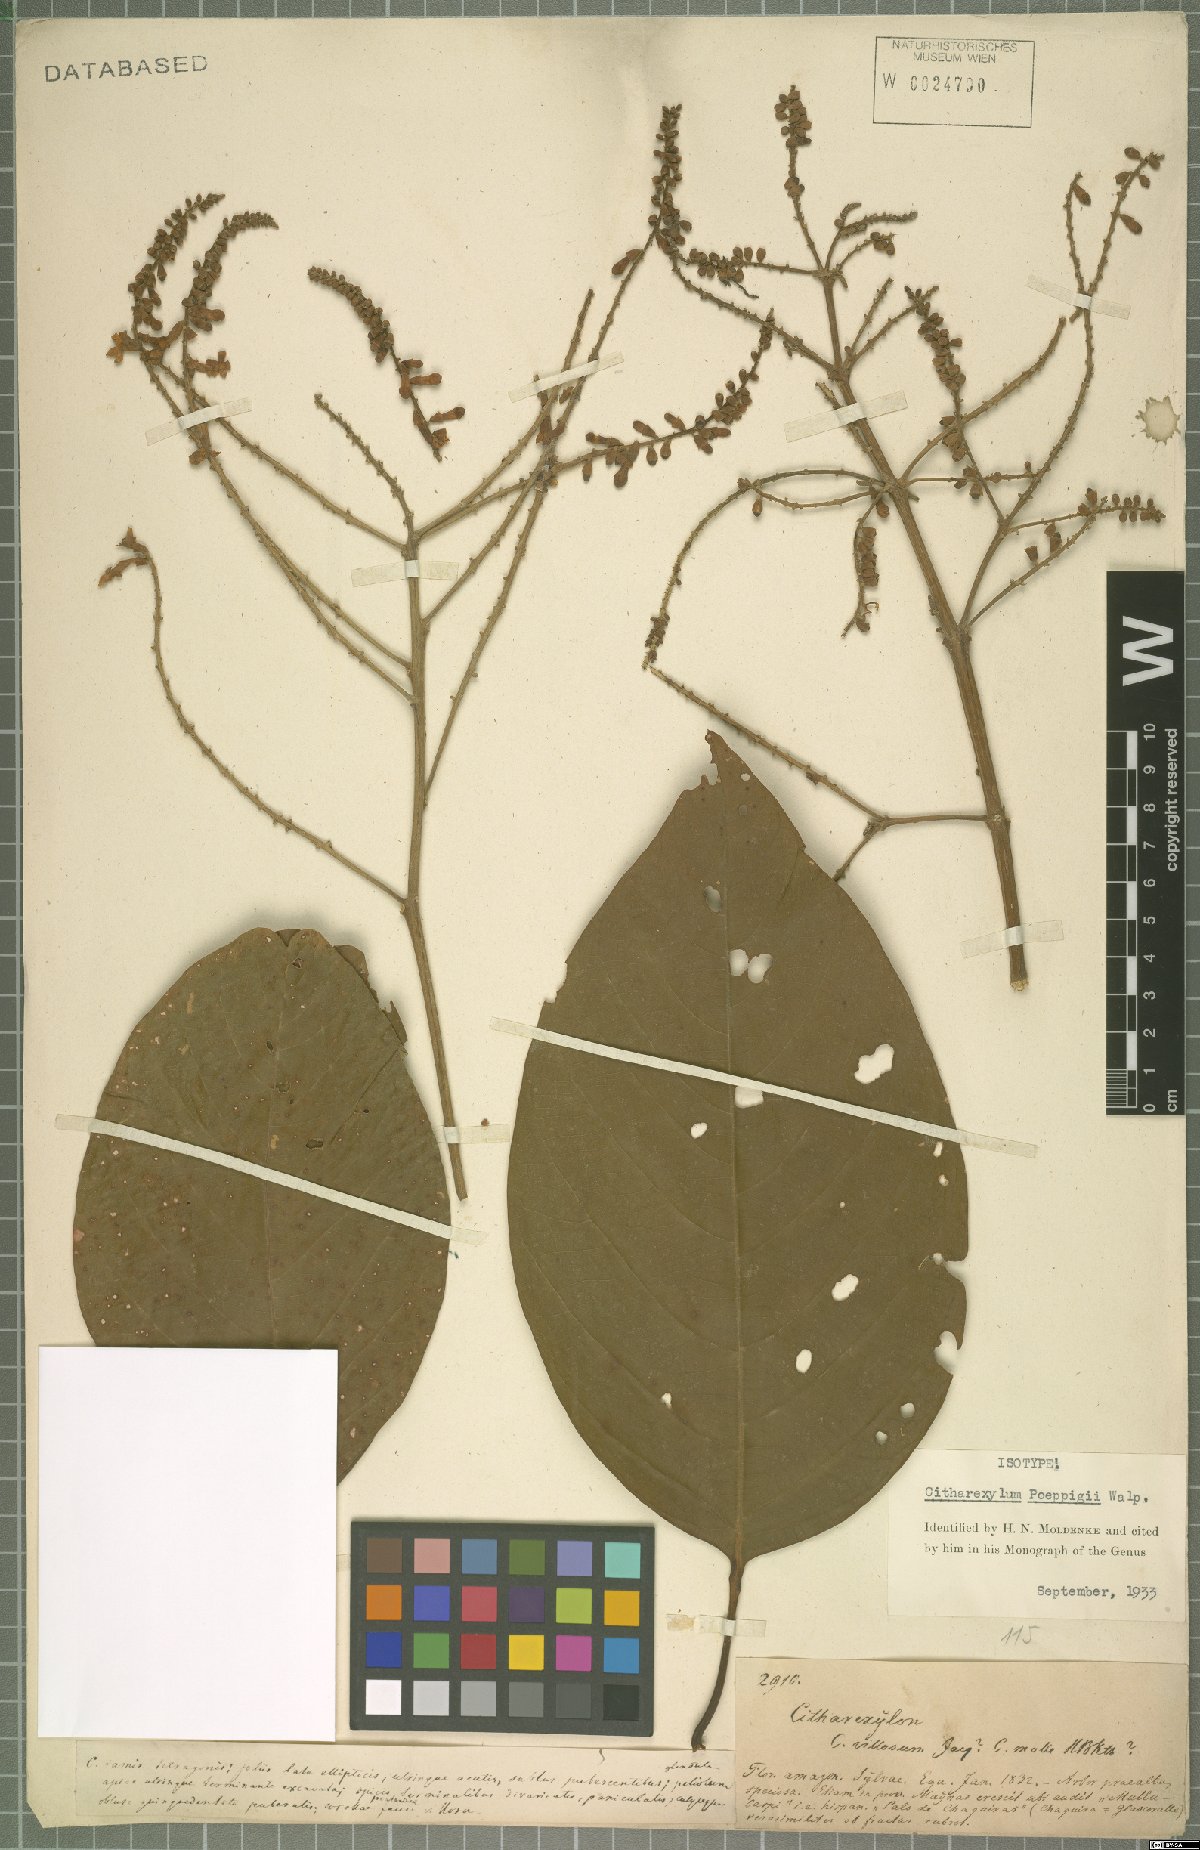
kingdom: Plantae
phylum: Tracheophyta
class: Magnoliopsida
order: Lamiales
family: Verbenaceae
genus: Citharexylum
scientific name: Citharexylum poeppigii
